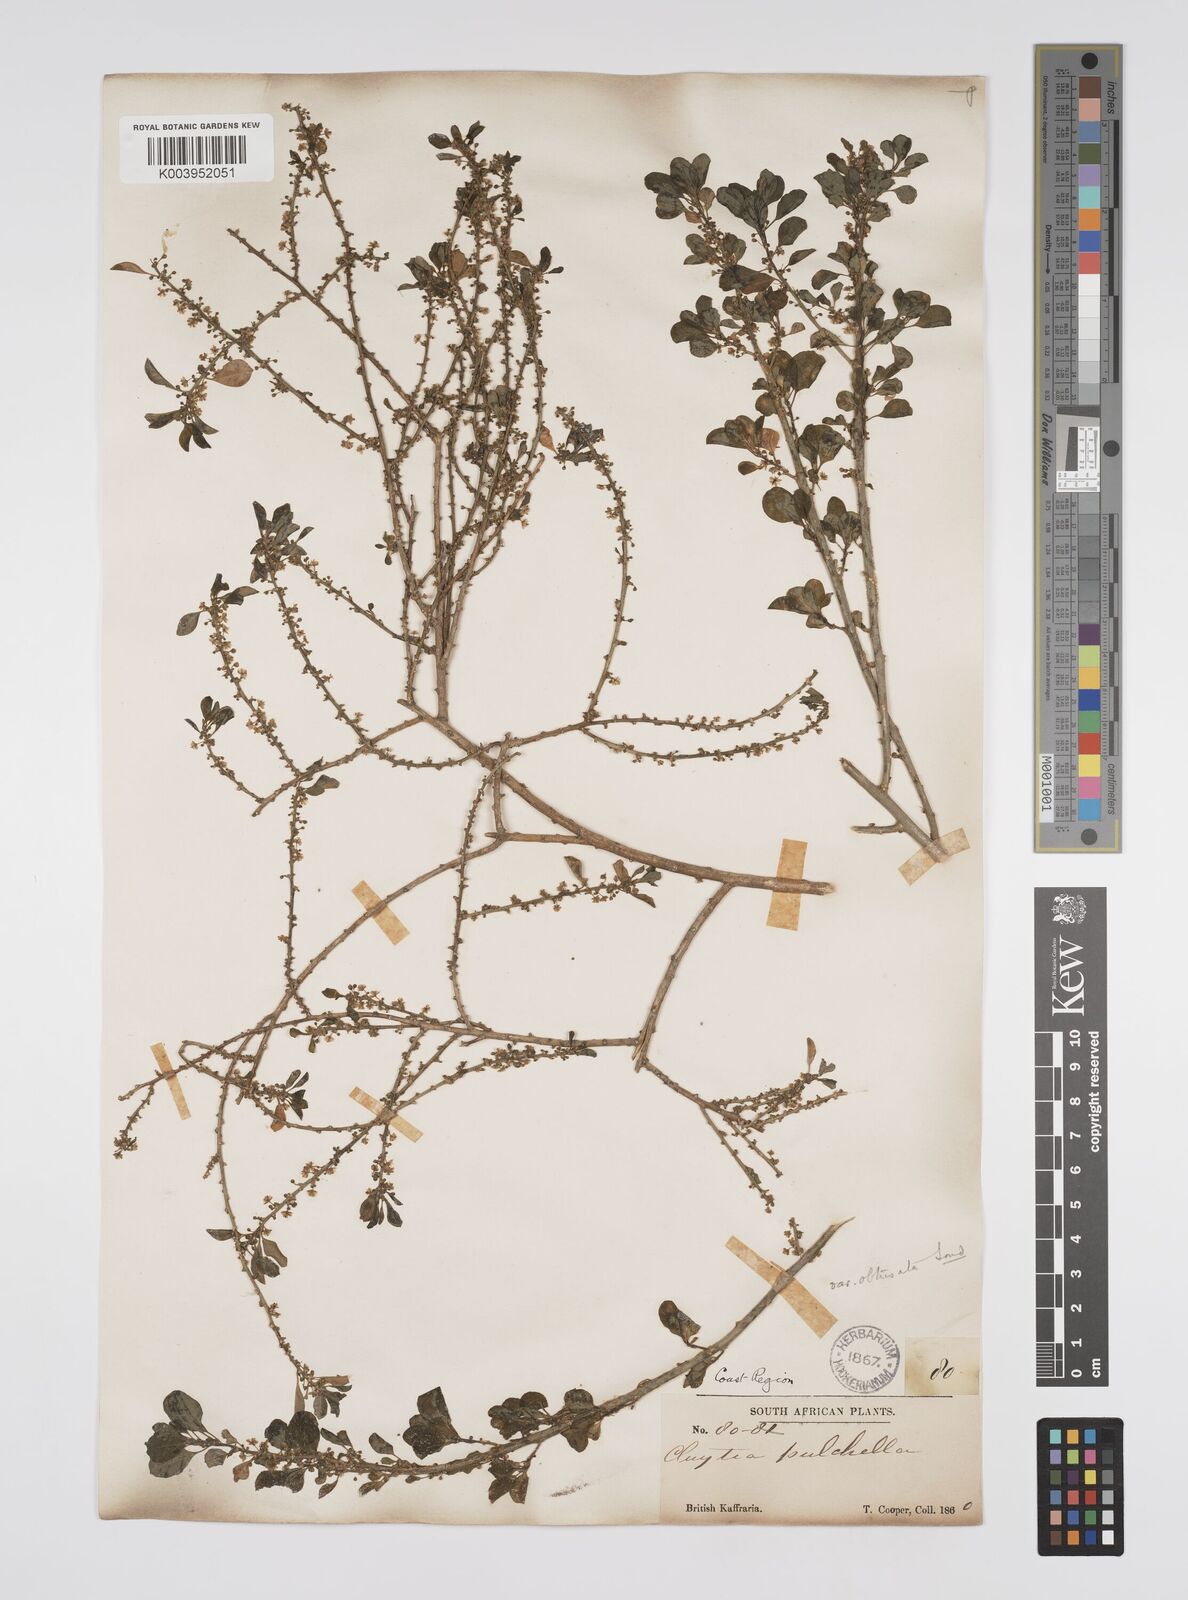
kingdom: Plantae
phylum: Tracheophyta
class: Magnoliopsida
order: Malpighiales
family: Peraceae
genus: Clutia
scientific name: Clutia pulchella
